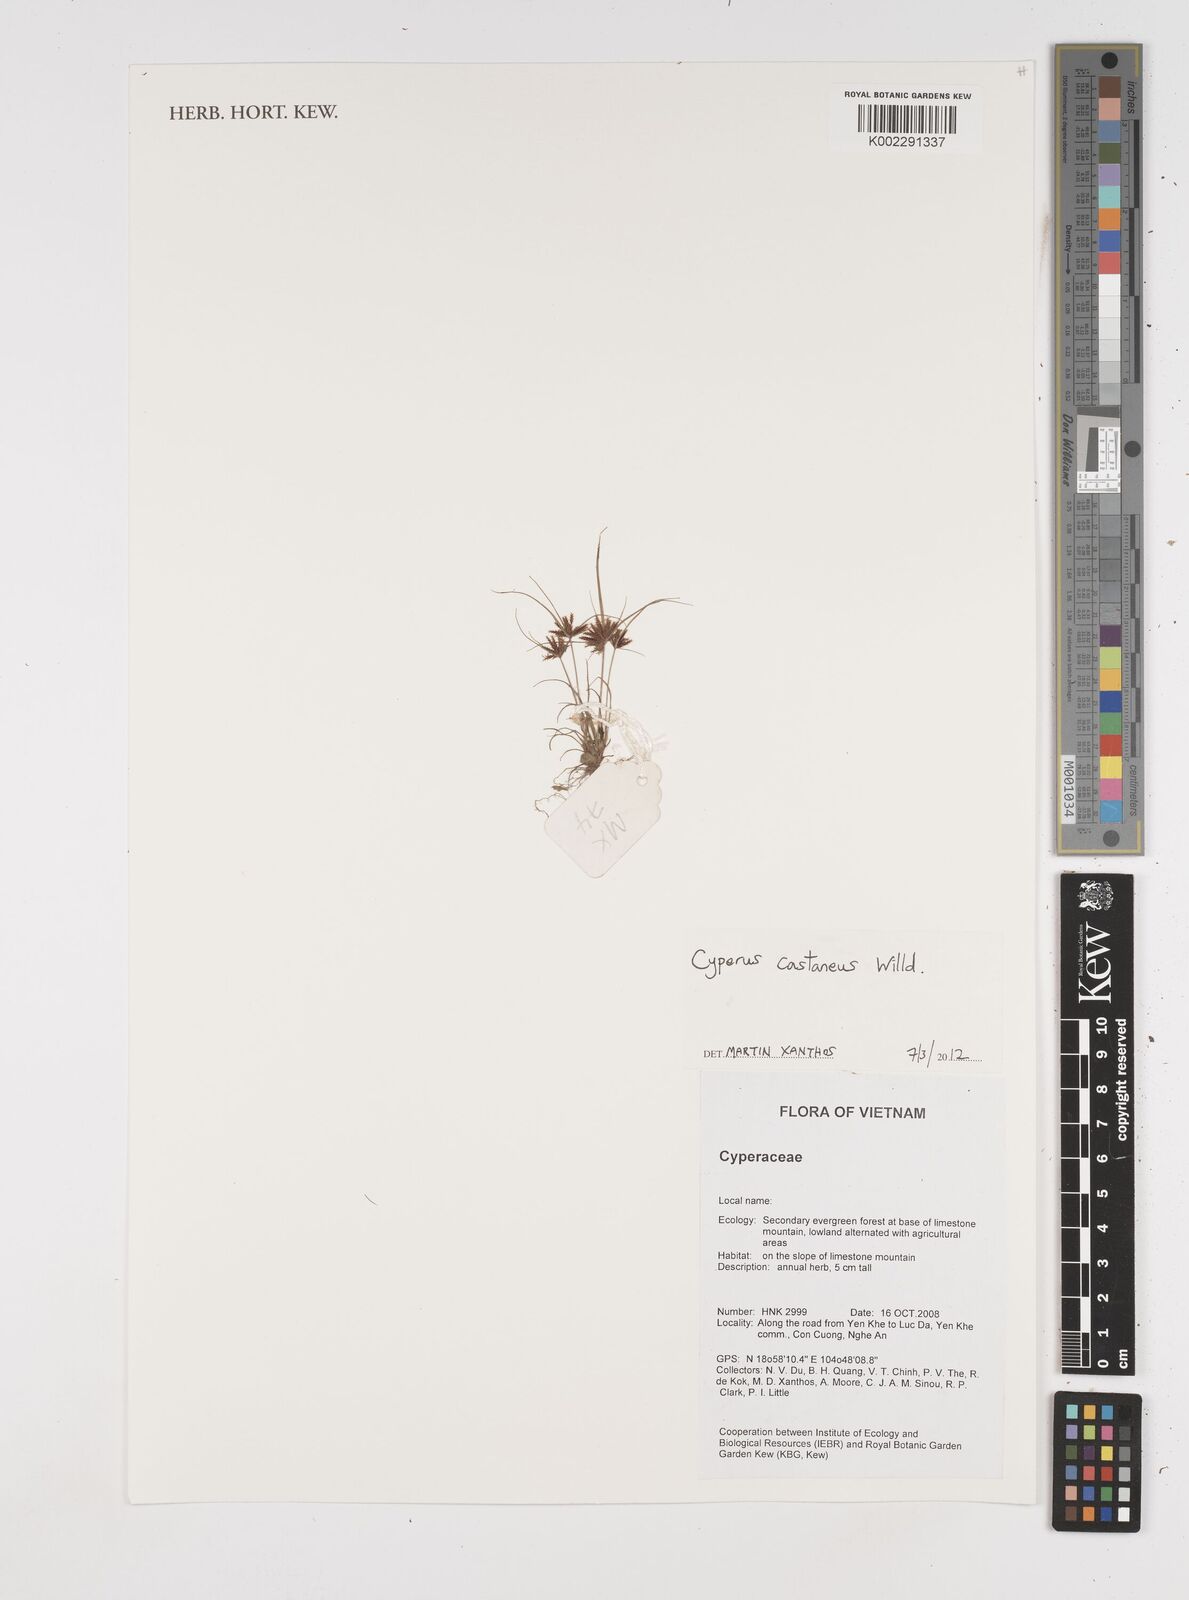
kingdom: Plantae
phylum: Tracheophyta
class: Liliopsida
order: Poales
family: Cyperaceae
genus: Cyperus
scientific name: Cyperus castaneus
